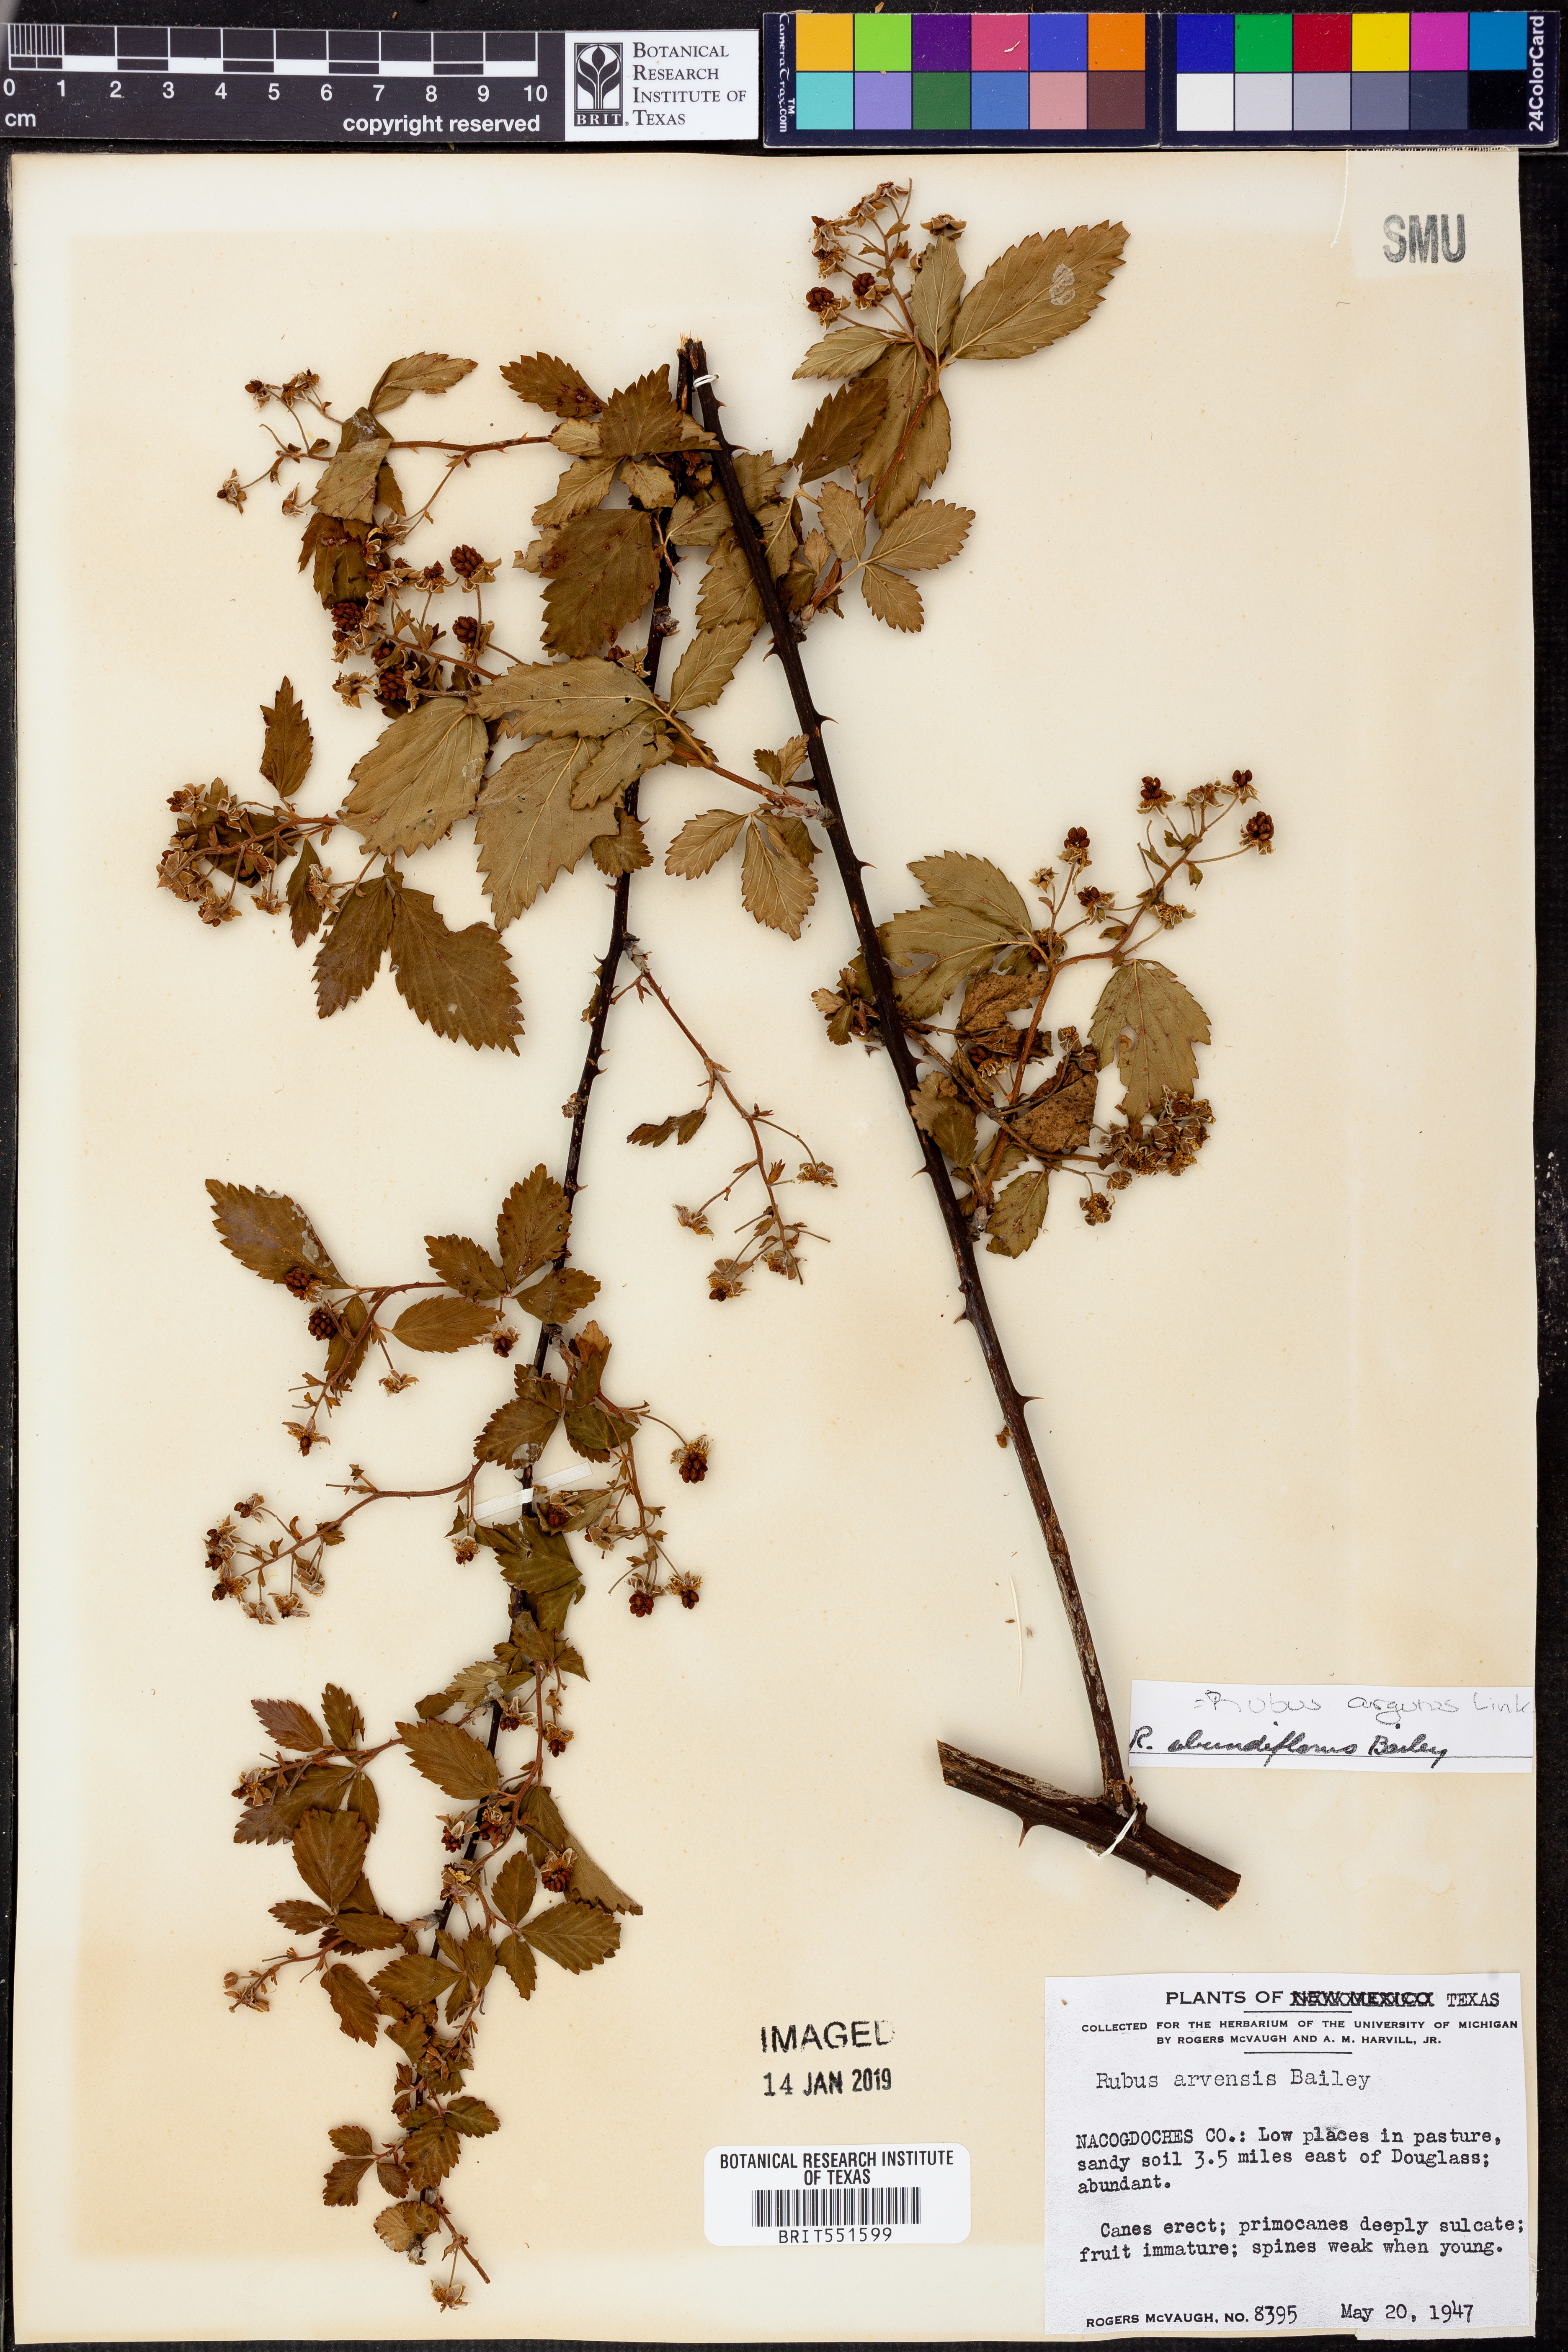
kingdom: Plantae
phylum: Tracheophyta
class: Magnoliopsida
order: Rosales
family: Rosaceae
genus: Rubus
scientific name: Rubus argutus
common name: Sawtooth blackberry
